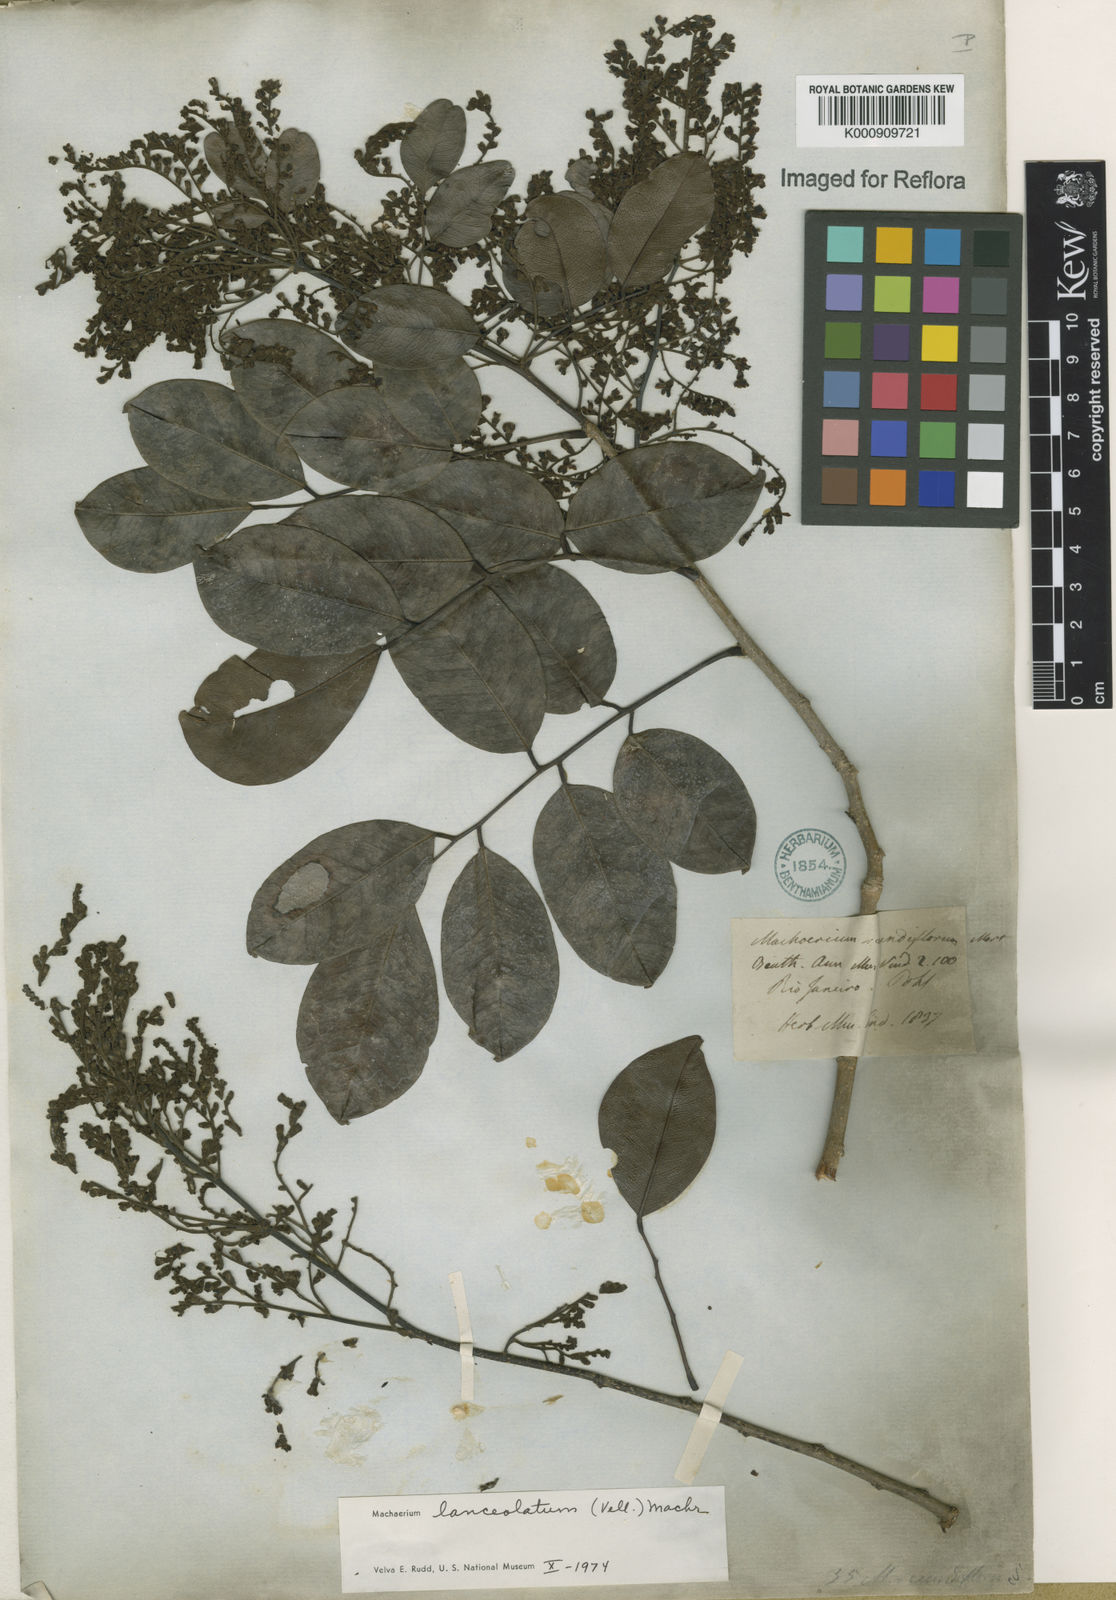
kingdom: Plantae
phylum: Tracheophyta
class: Magnoliopsida
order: Fabales
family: Fabaceae
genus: Machaerium
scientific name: Machaerium lanceolatum
